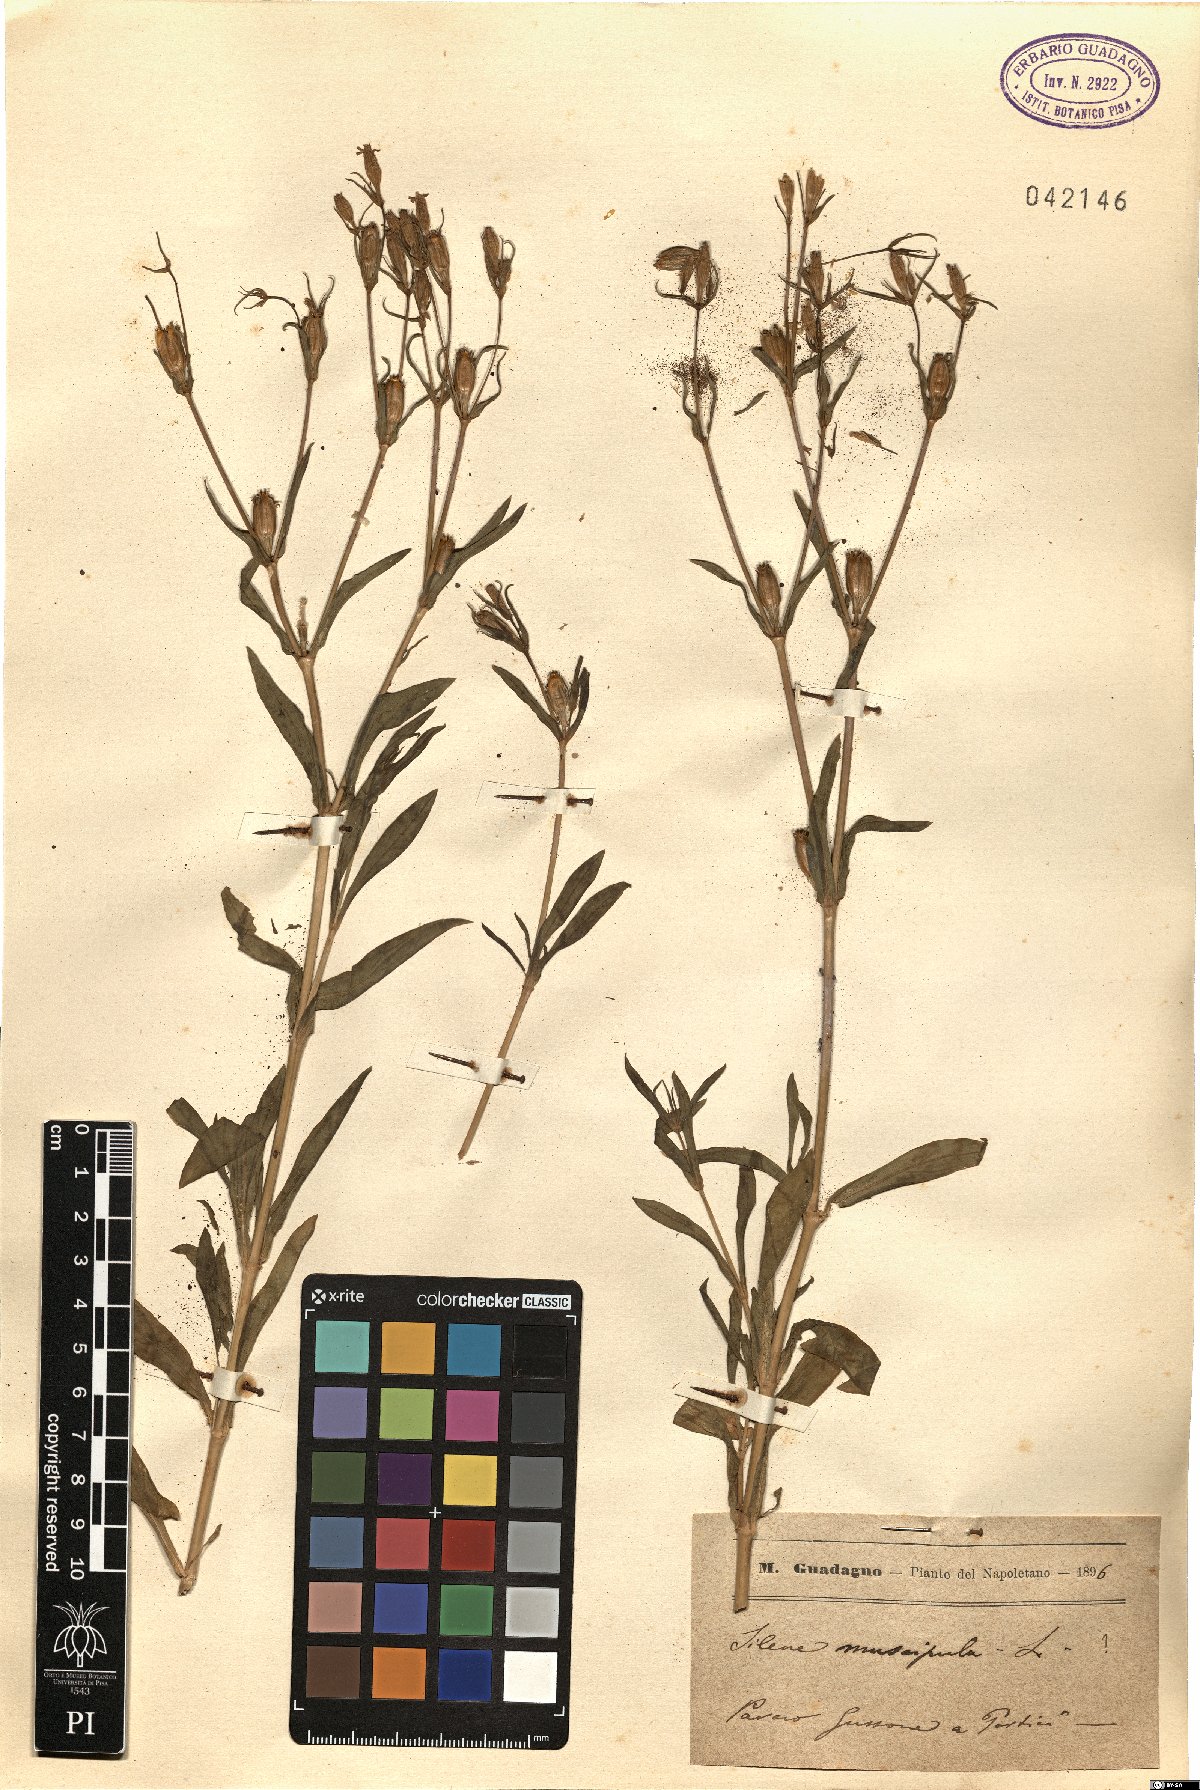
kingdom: Plantae
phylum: Tracheophyta
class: Magnoliopsida
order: Caryophyllales
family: Caryophyllaceae
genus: Silene
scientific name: Silene muscipula
